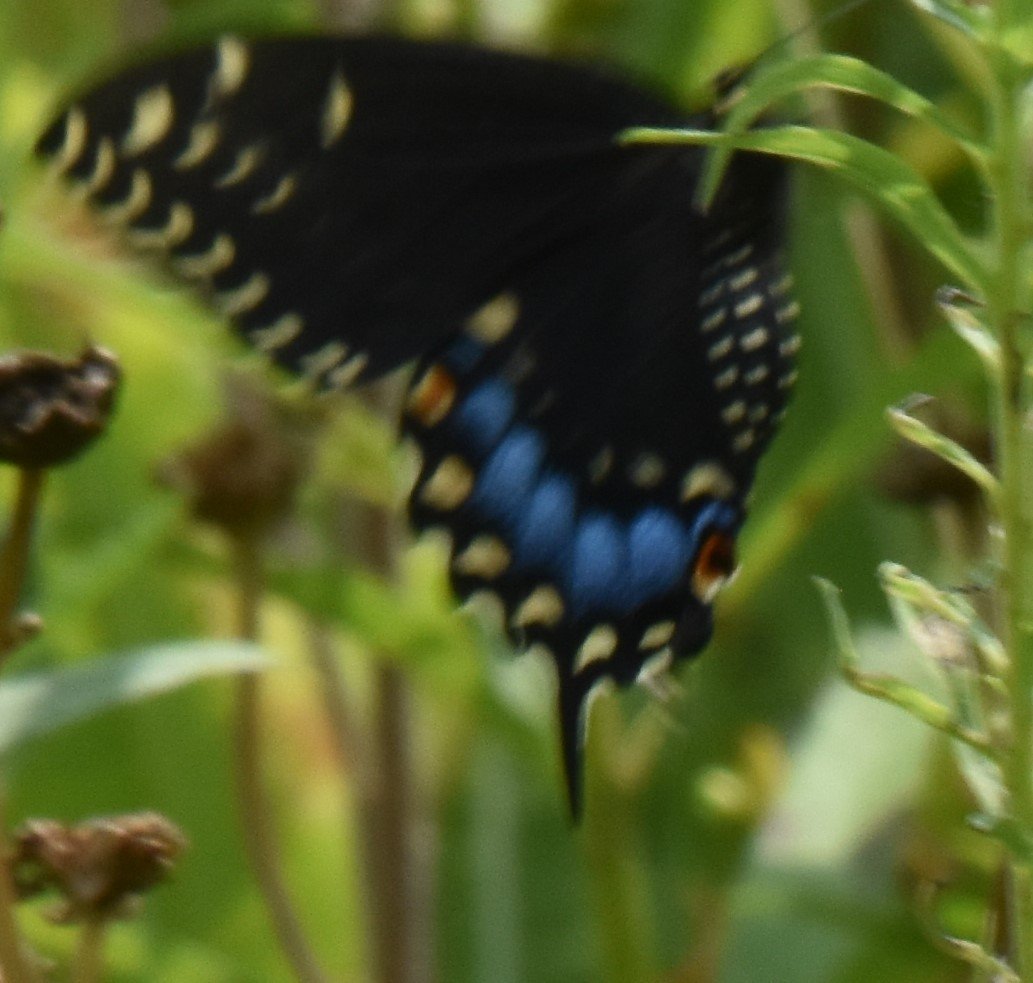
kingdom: Animalia
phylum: Arthropoda
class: Insecta
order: Lepidoptera
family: Papilionidae
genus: Papilio
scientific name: Papilio polyxenes
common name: Black Swallowtail
